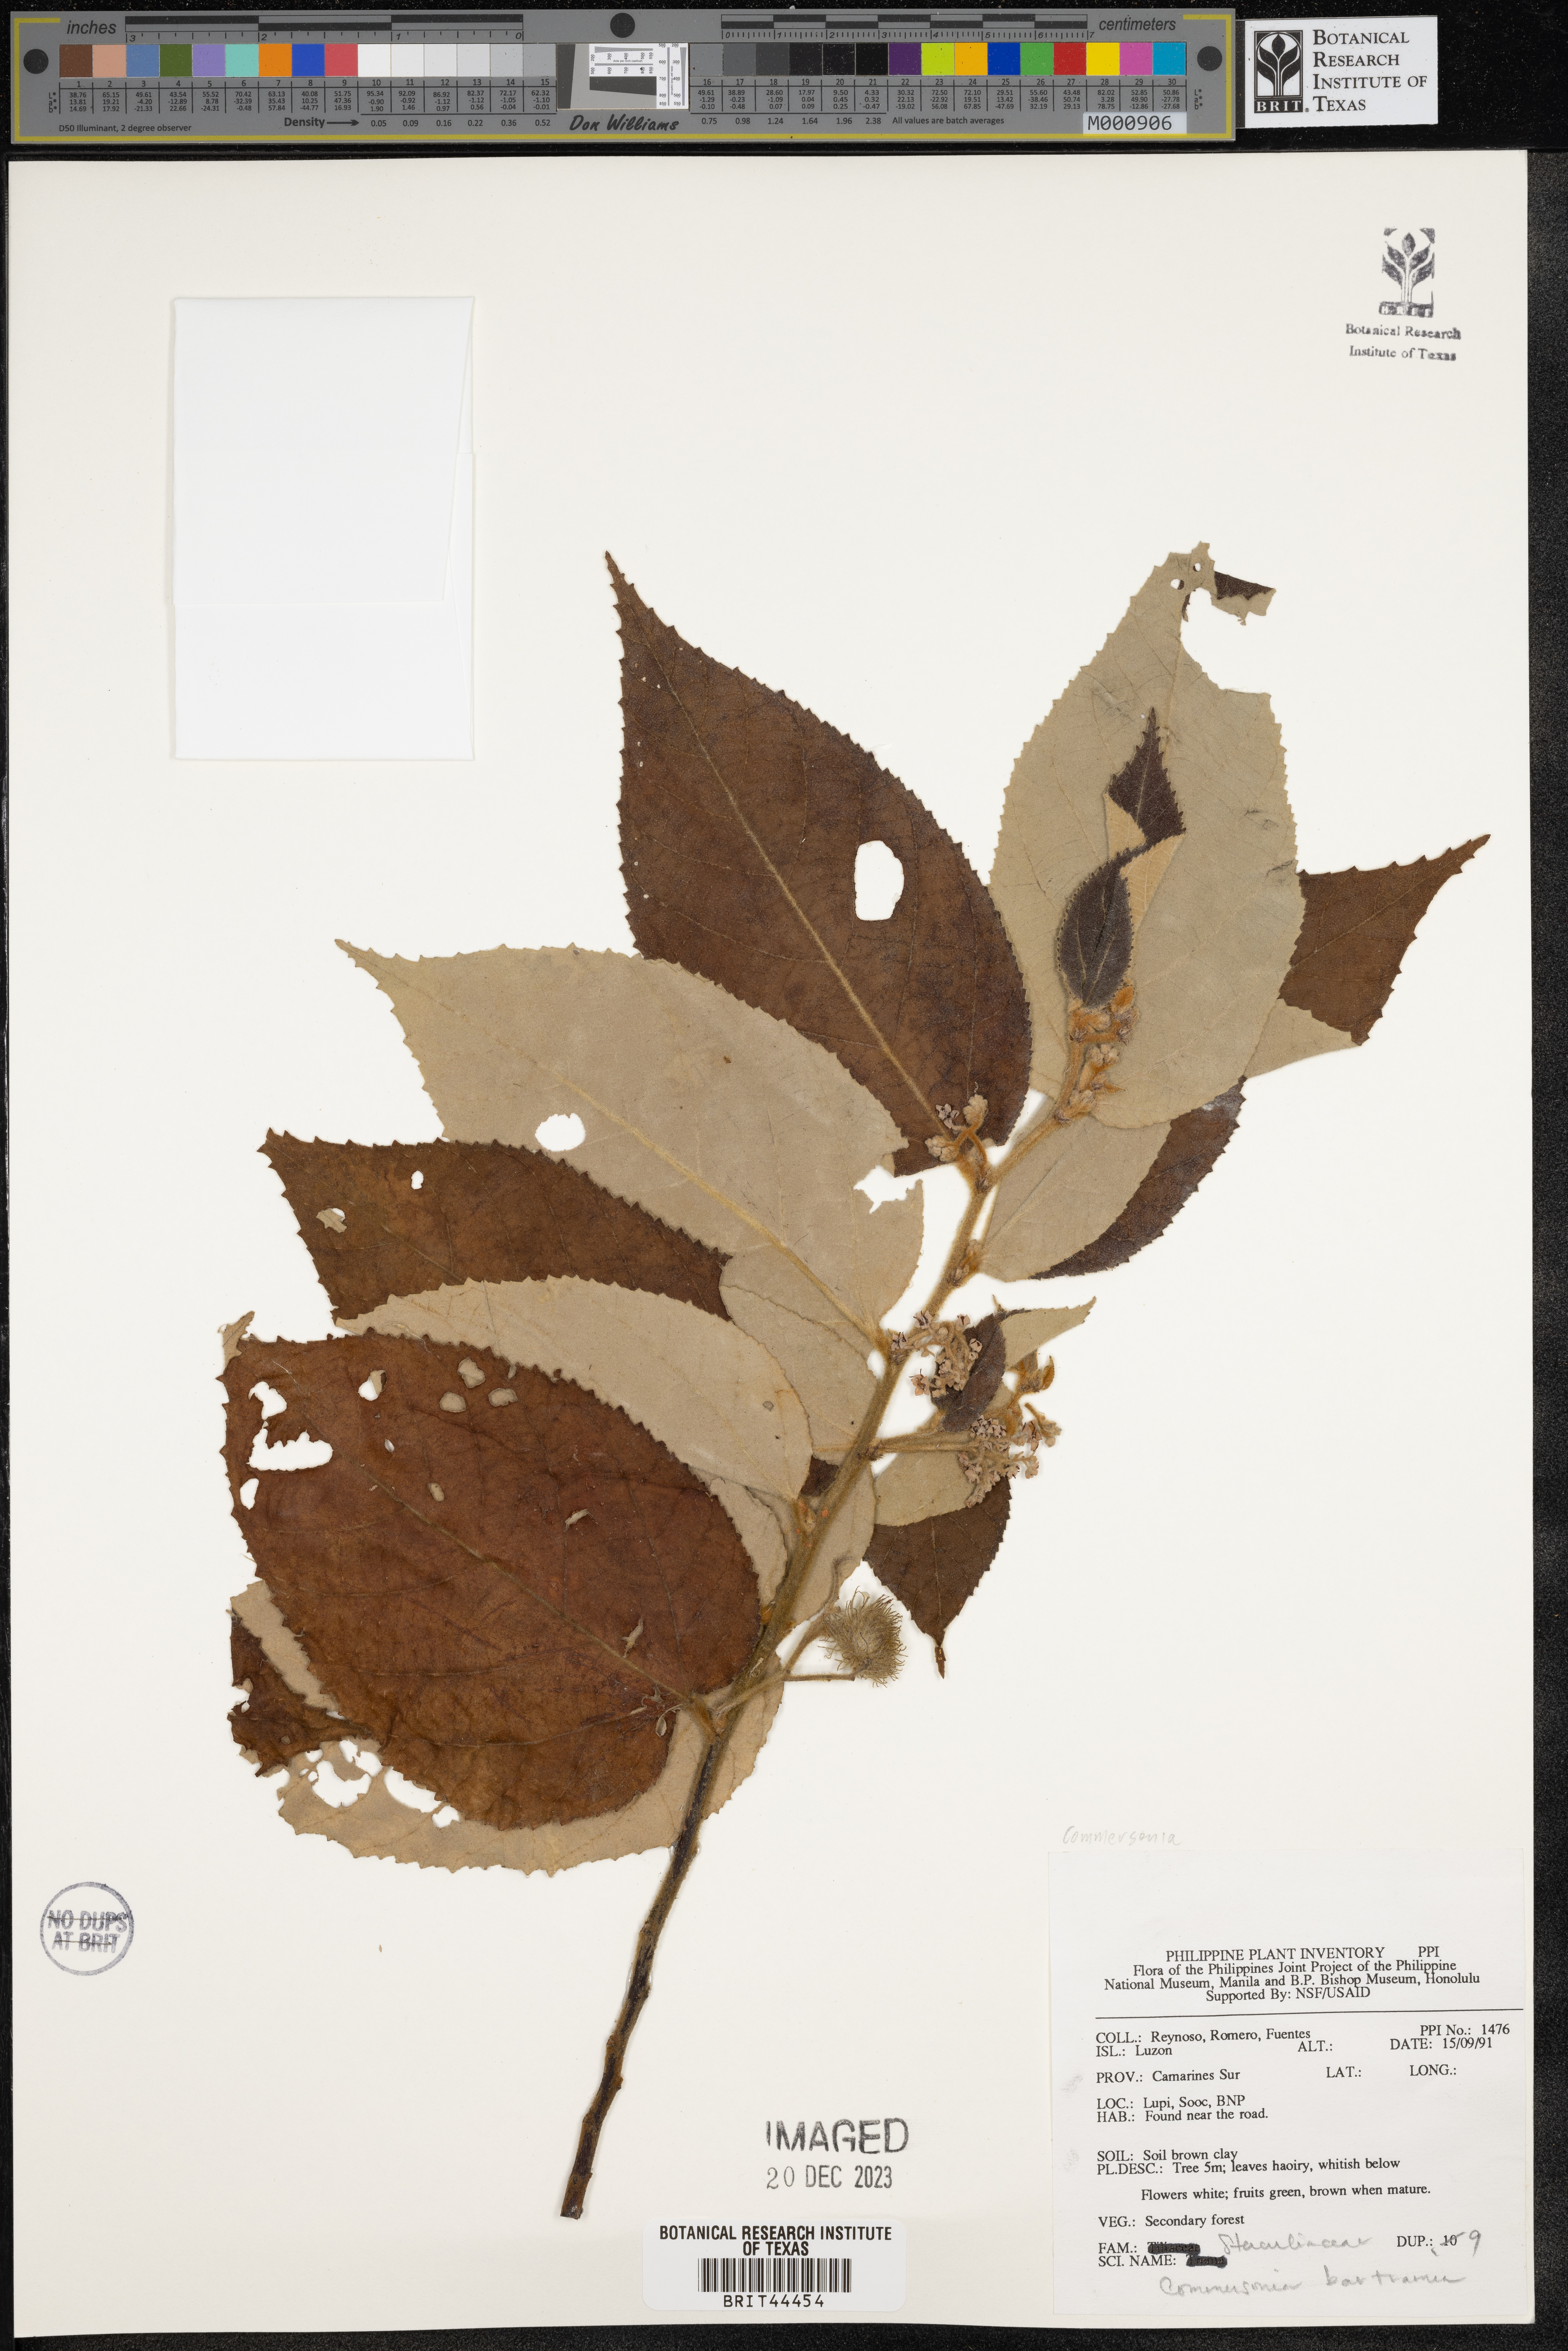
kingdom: Plantae
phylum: Tracheophyta
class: Magnoliopsida
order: Malvales
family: Malvaceae
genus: Commersonia
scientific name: Commersonia bartramia
